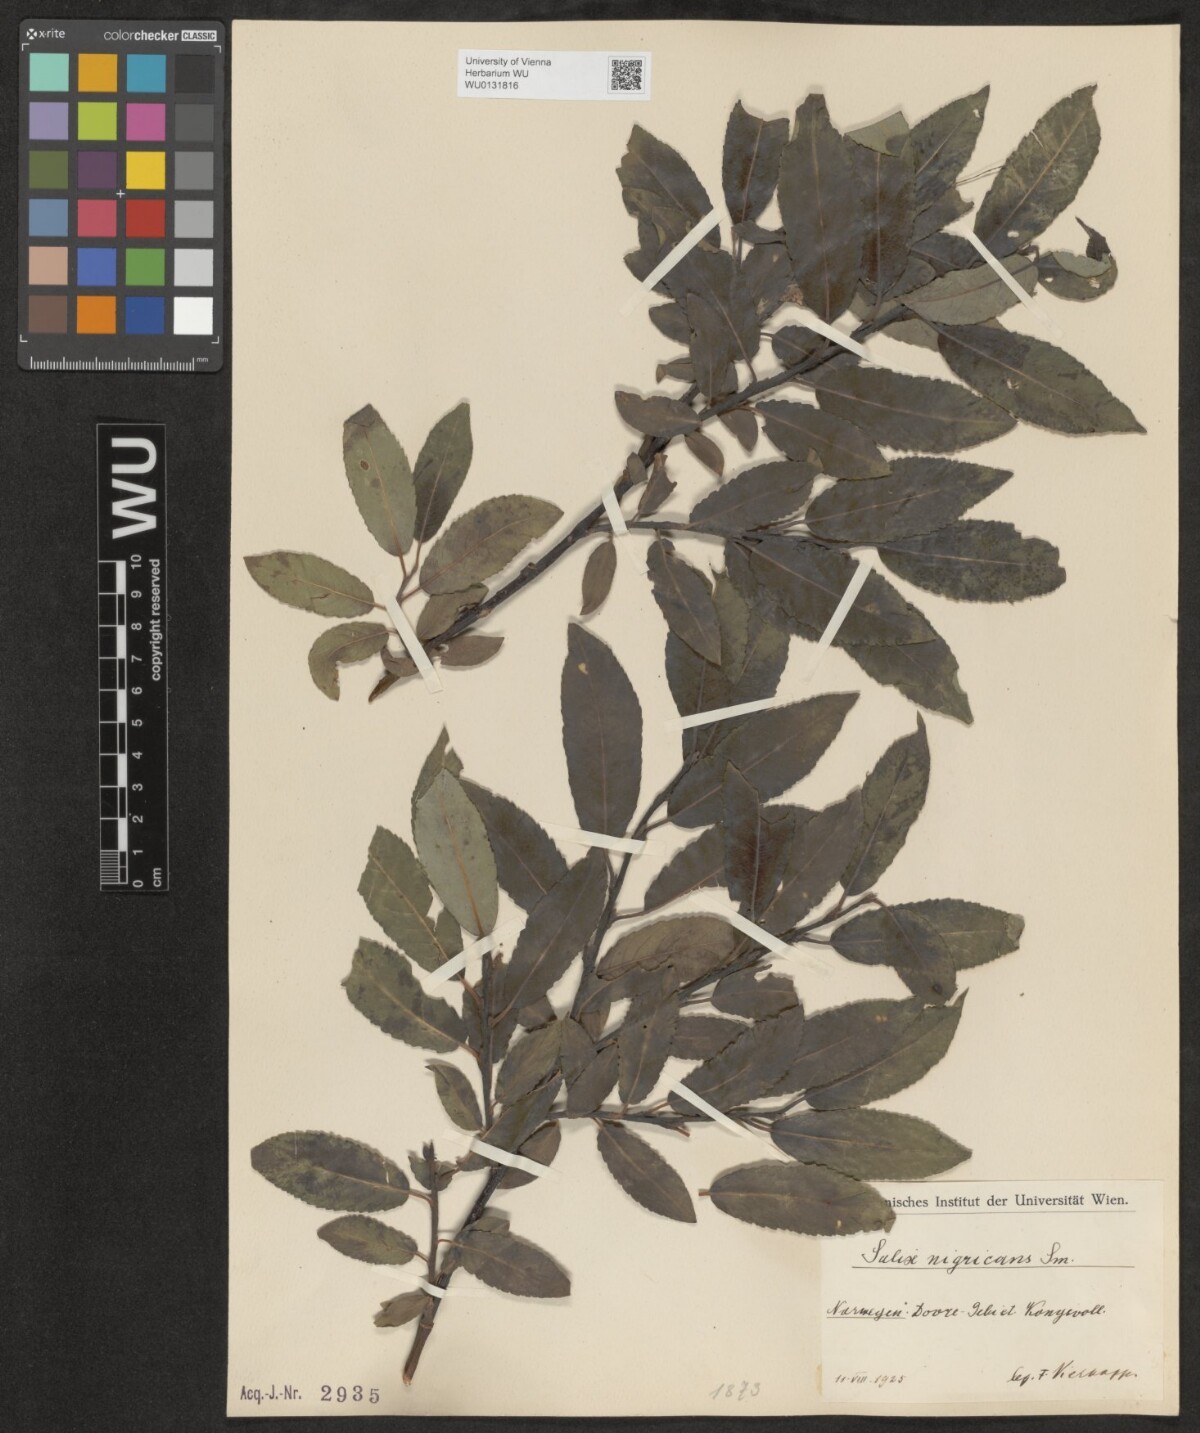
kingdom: Plantae
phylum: Tracheophyta
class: Magnoliopsida
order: Malpighiales
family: Salicaceae
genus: Salix
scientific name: Salix myrsinifolia
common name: Dark-leaved willow
